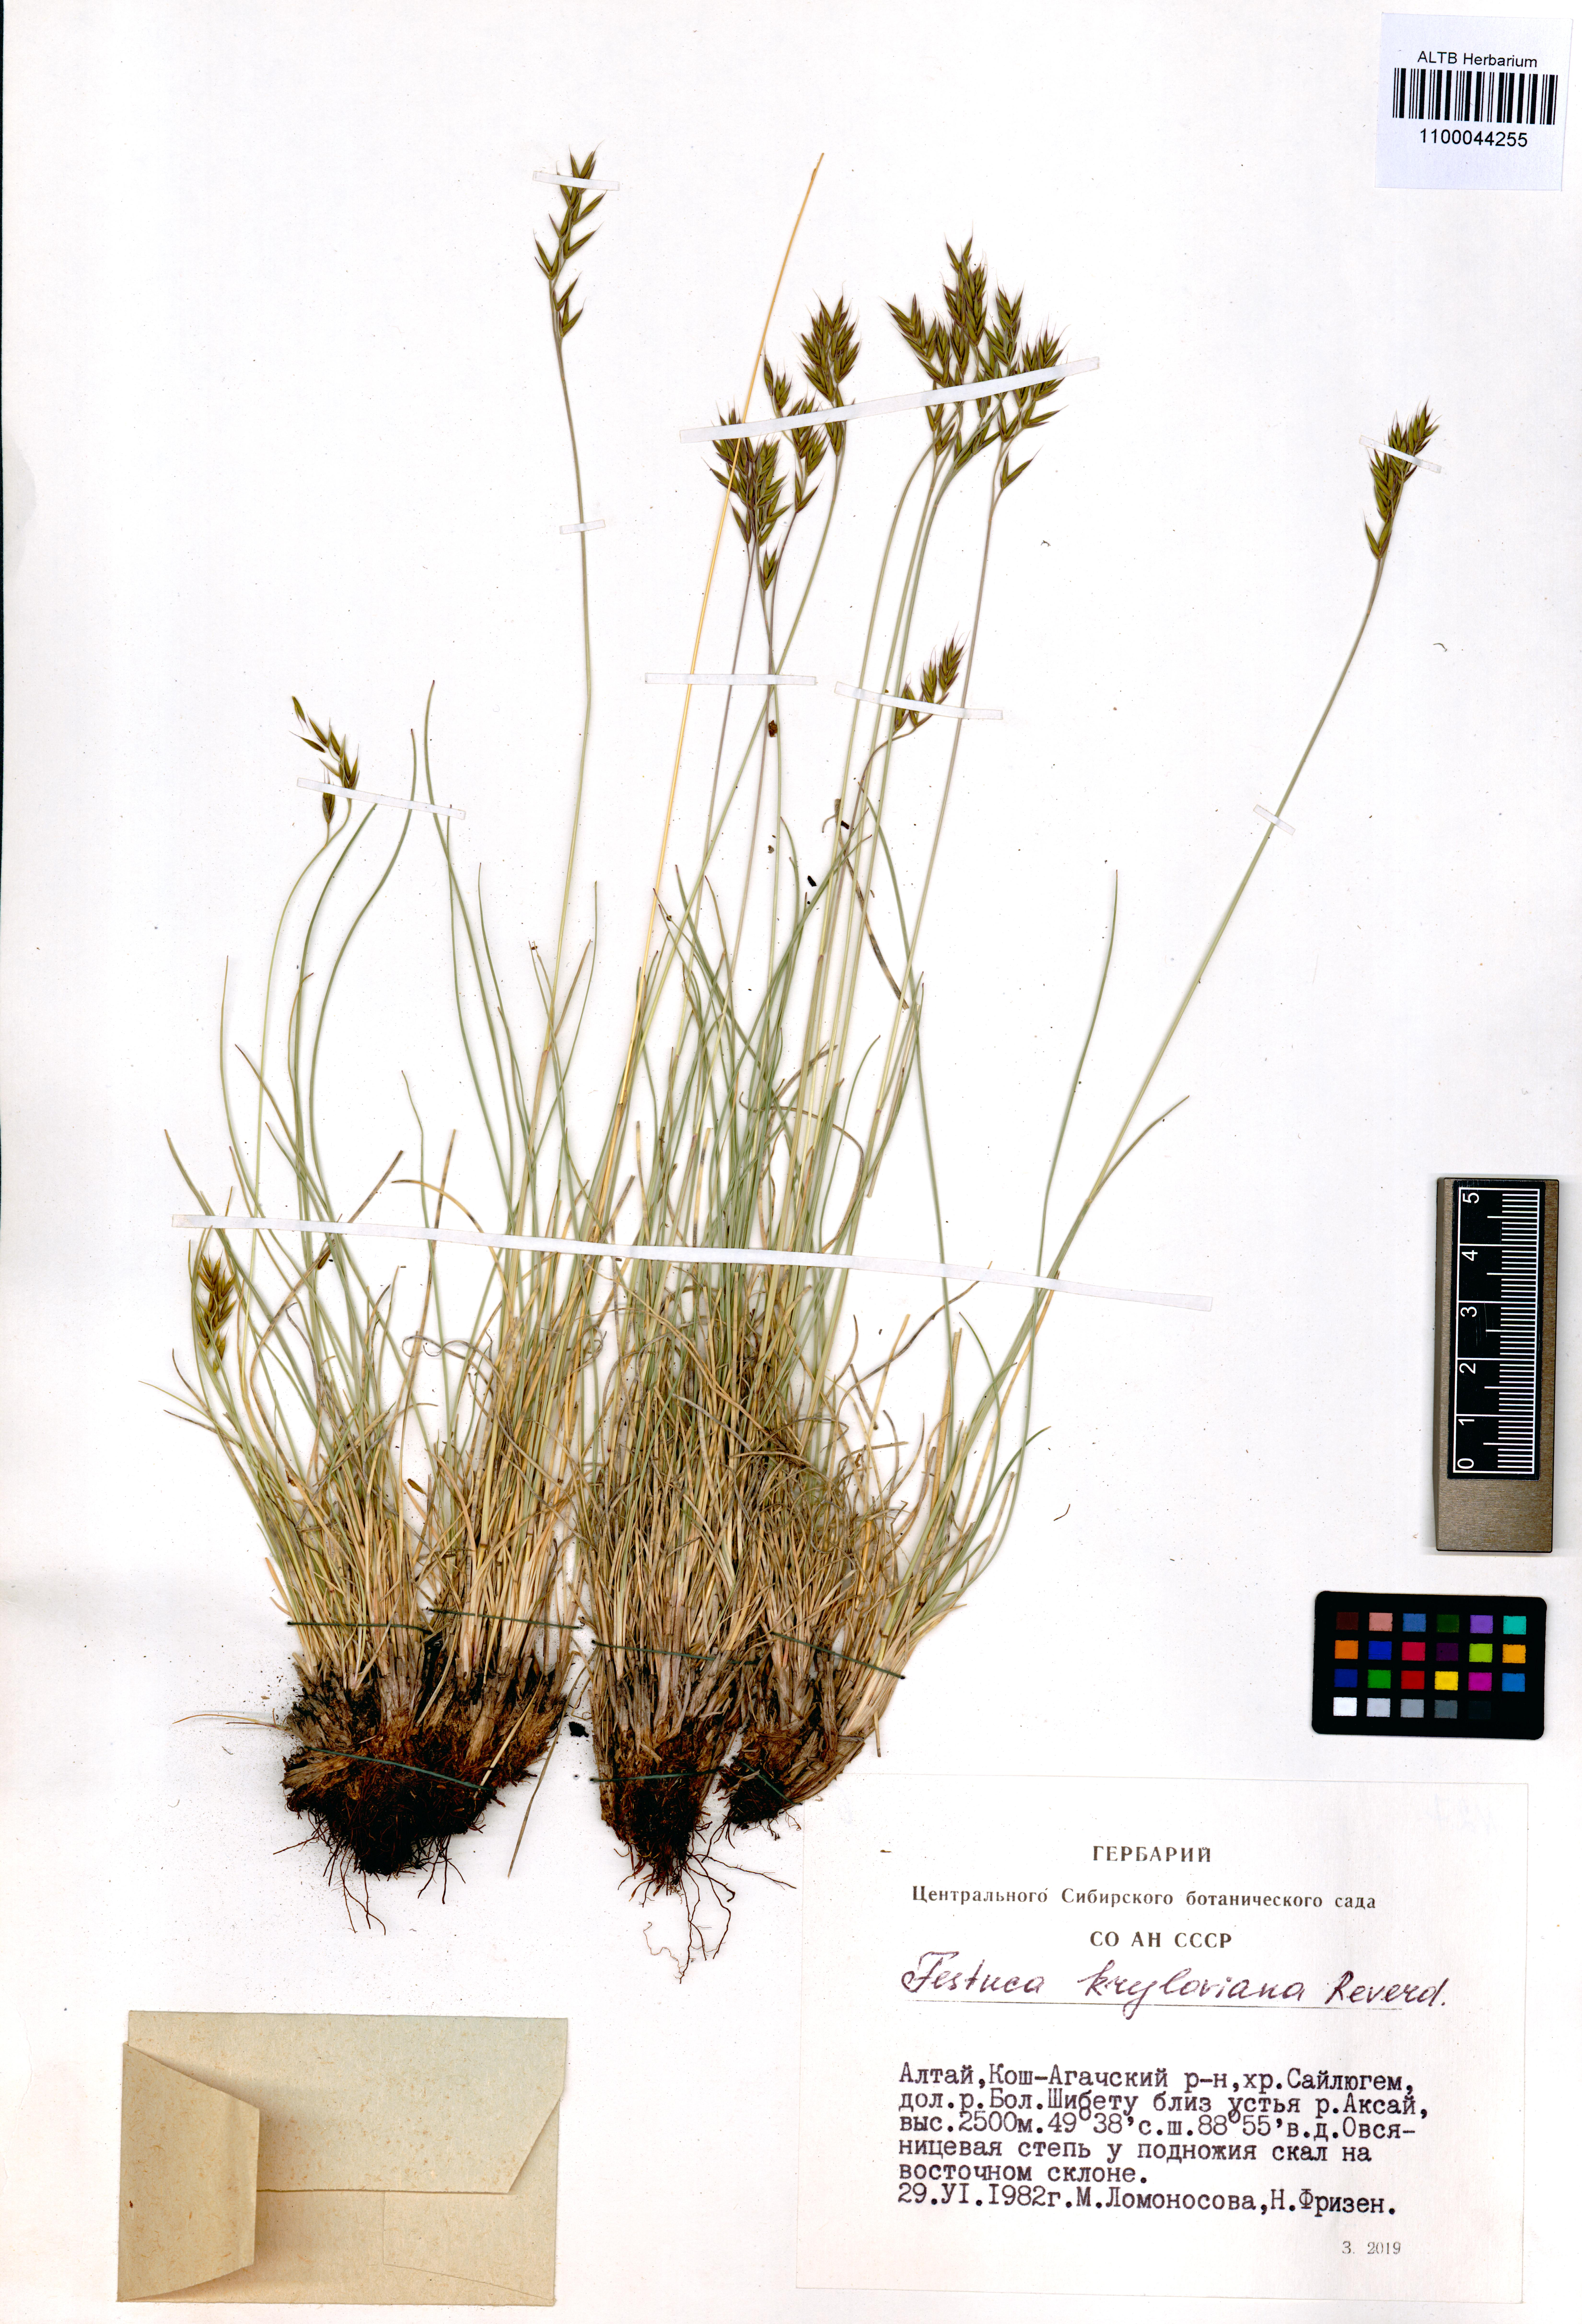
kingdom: Plantae
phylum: Tracheophyta
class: Liliopsida
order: Poales
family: Poaceae
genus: Festuca
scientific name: Festuca kryloviana
